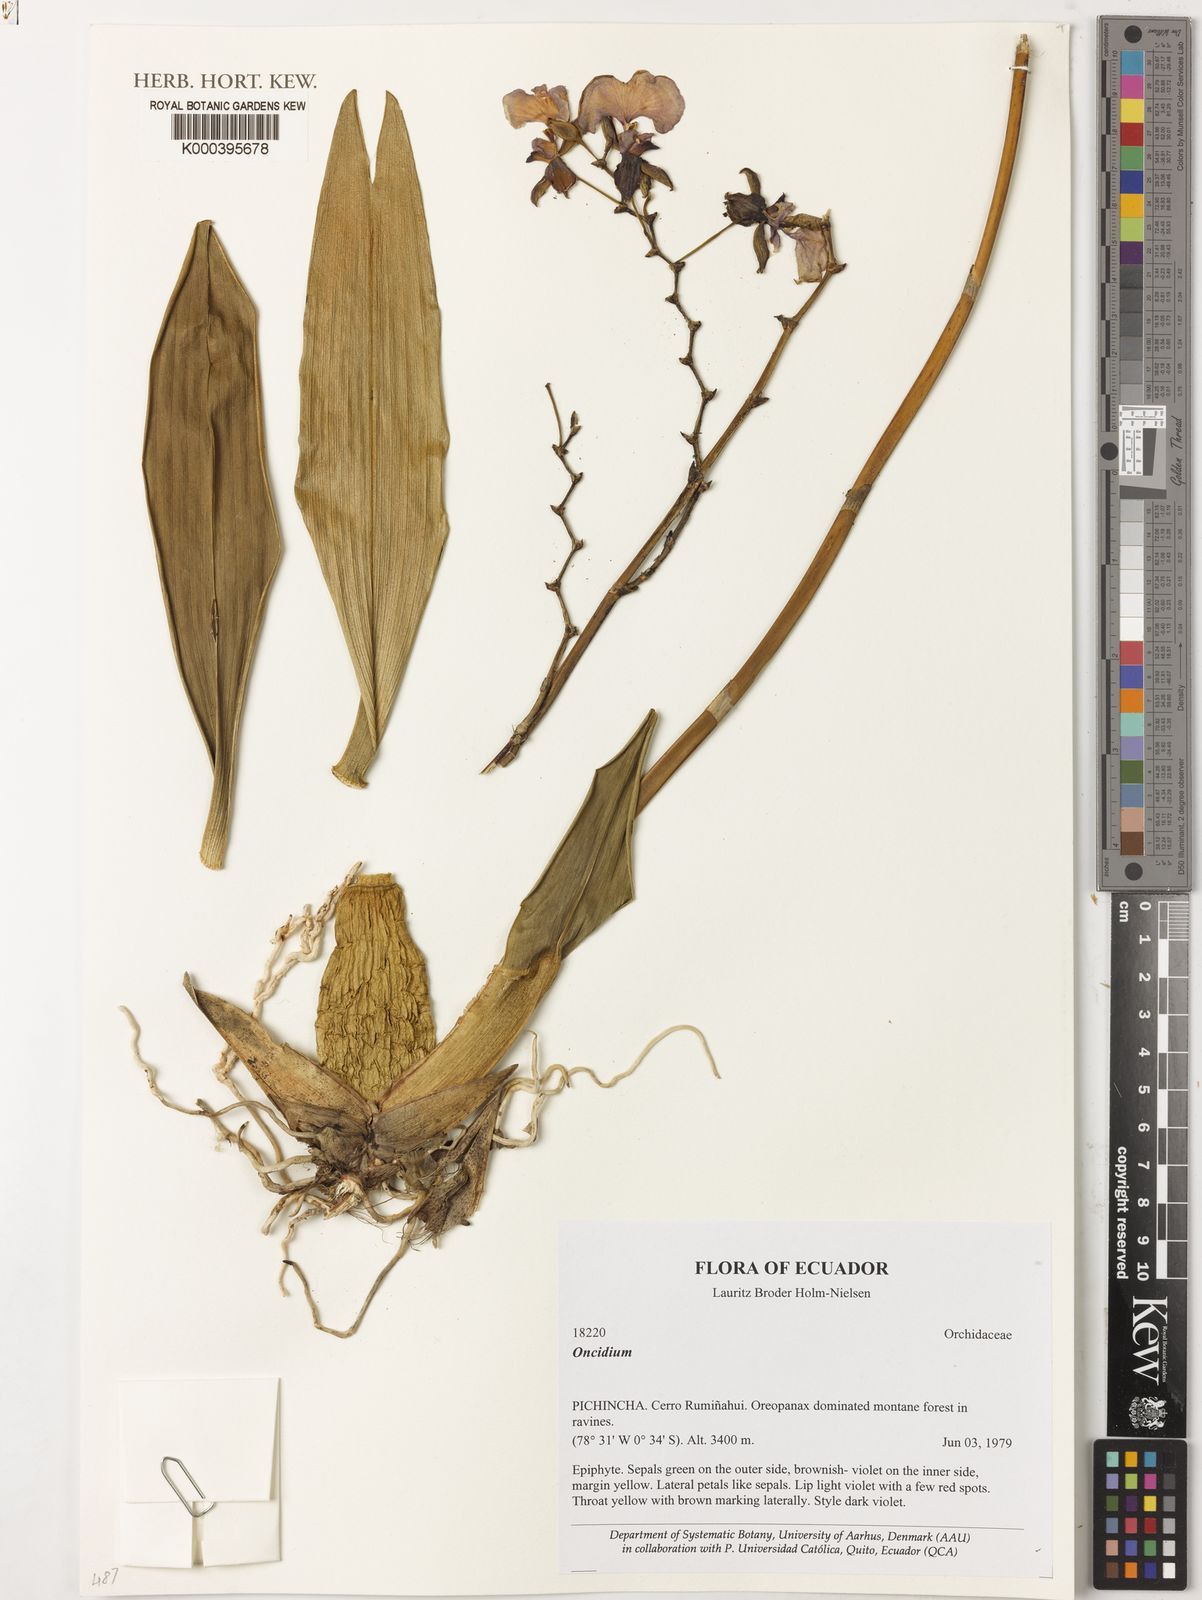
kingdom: Plantae
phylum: Tracheophyta
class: Liliopsida
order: Asparagales
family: Orchidaceae
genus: Oncidium
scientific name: Oncidium
